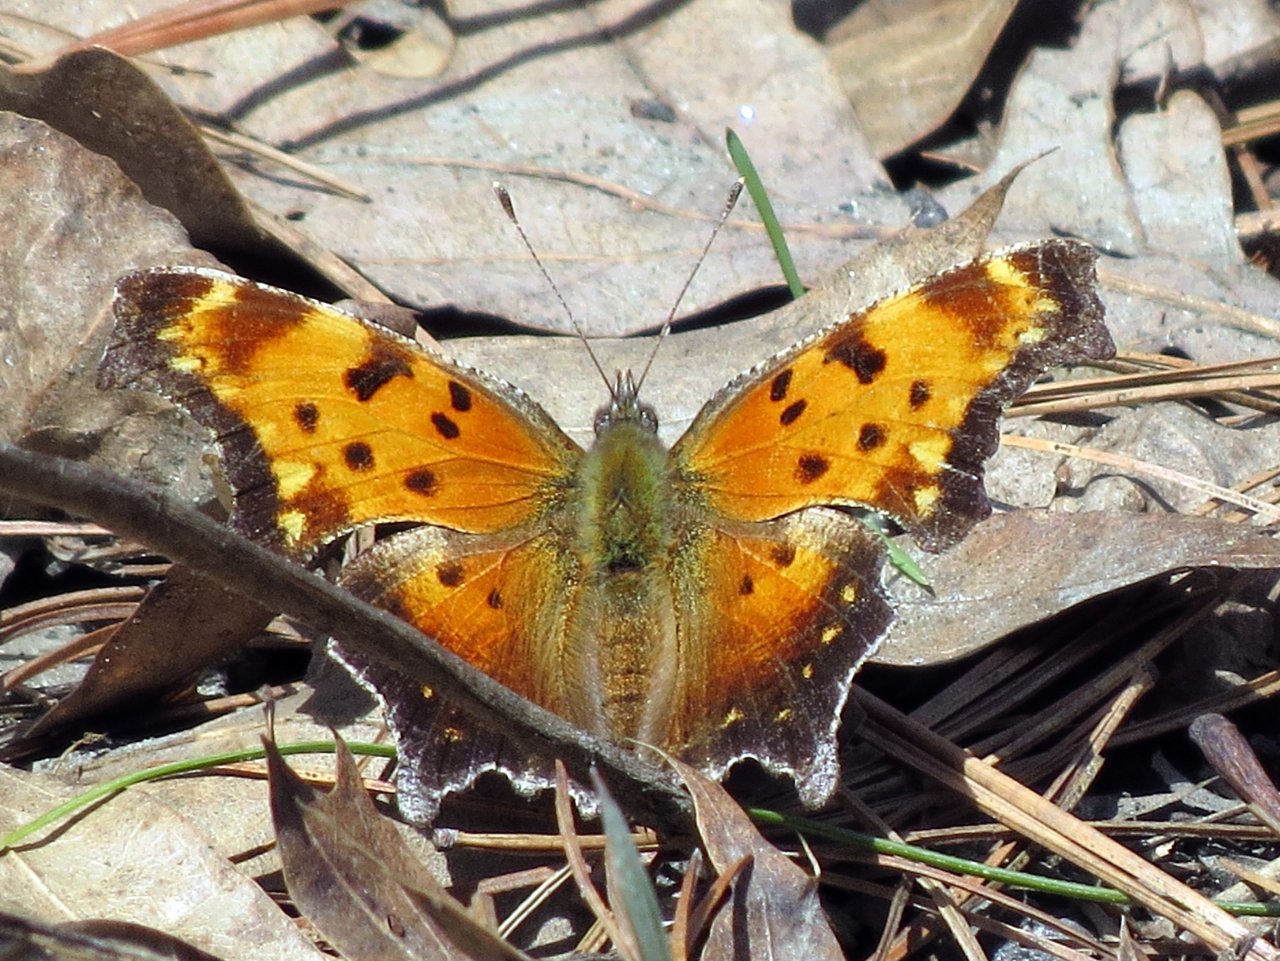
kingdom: Animalia
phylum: Arthropoda
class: Insecta
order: Lepidoptera
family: Nymphalidae
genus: Polygonia
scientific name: Polygonia progne
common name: Gray Comma
